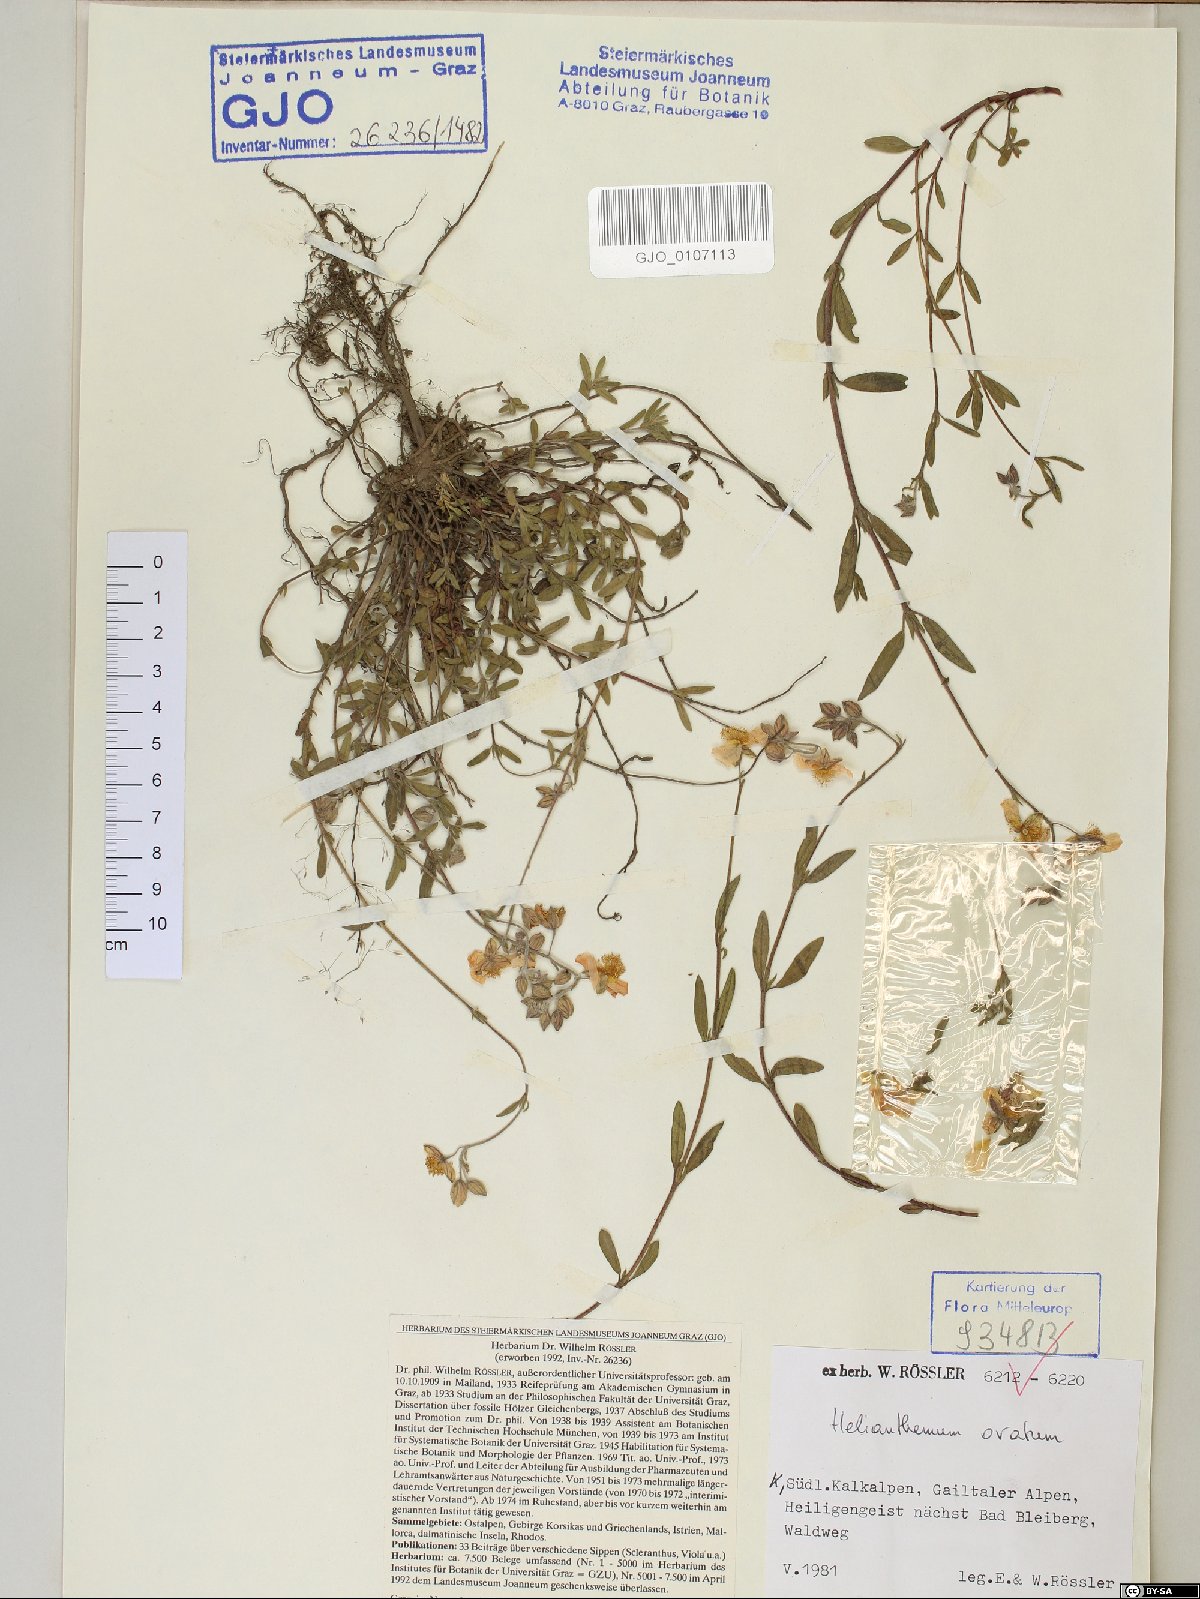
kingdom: Plantae
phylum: Tracheophyta
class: Magnoliopsida
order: Malvales
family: Cistaceae
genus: Helianthemum
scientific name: Helianthemum nummularium
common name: Common rock-rose
